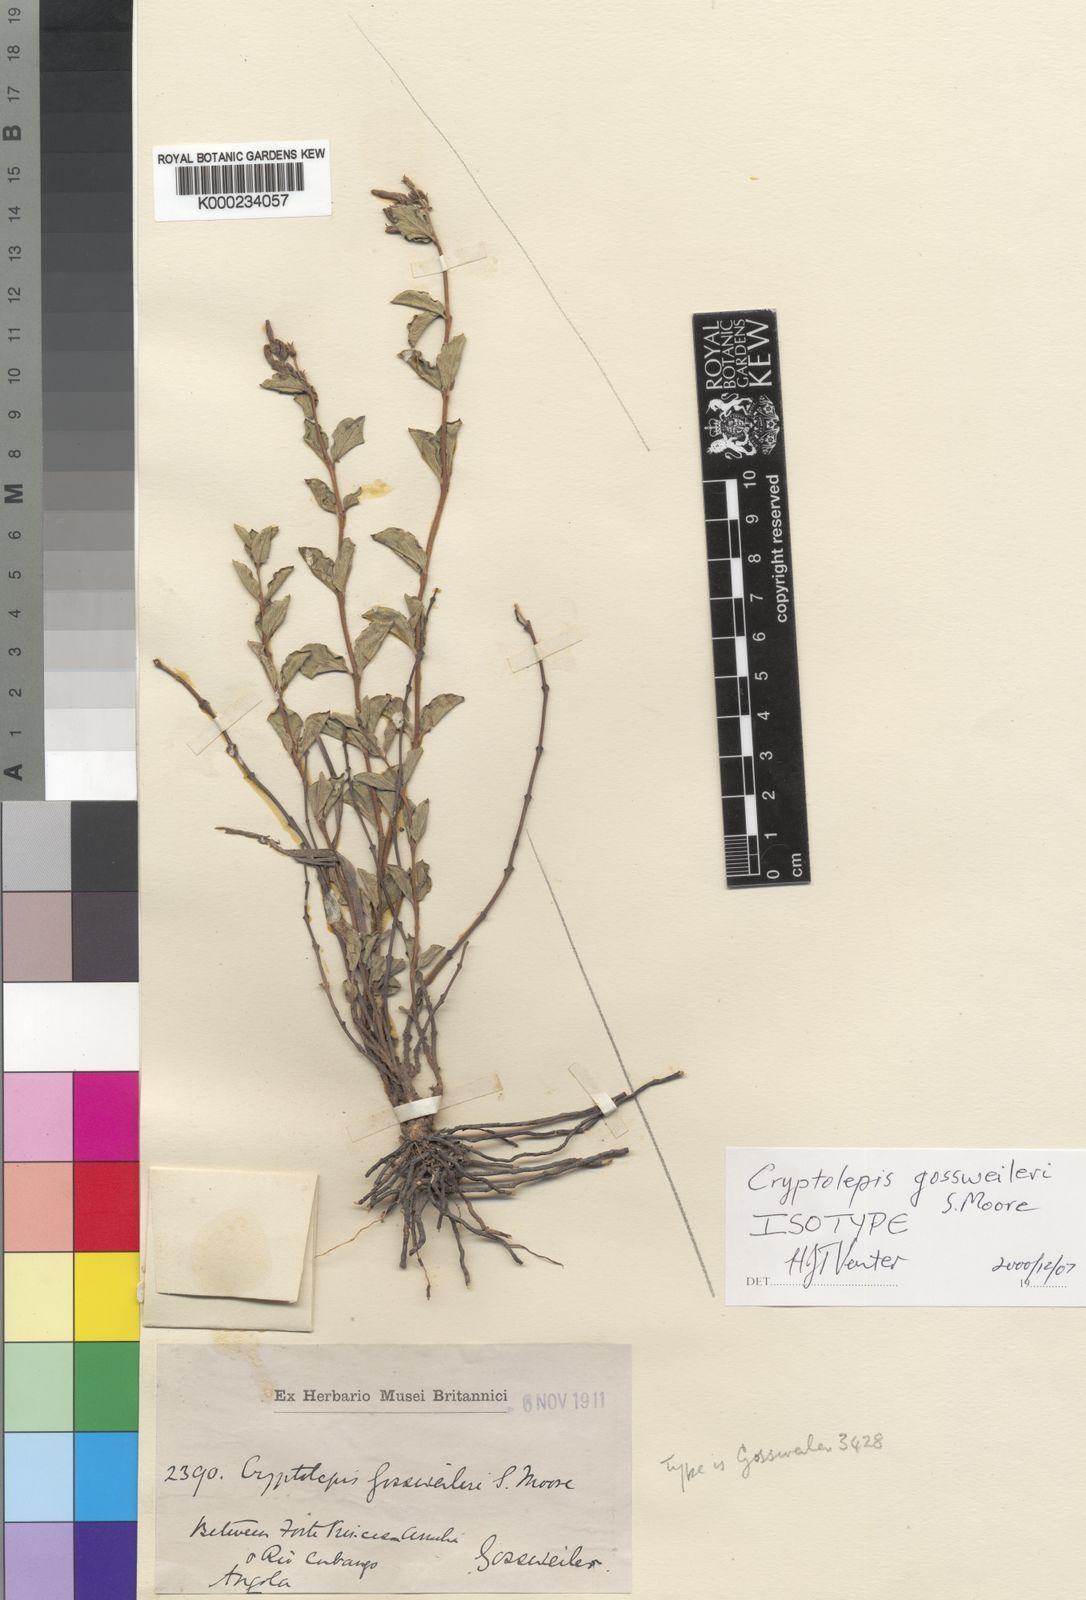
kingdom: Plantae
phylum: Tracheophyta
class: Magnoliopsida
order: Gentianales
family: Apocynaceae
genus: Cryptolepis
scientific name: Cryptolepis gossweileri
